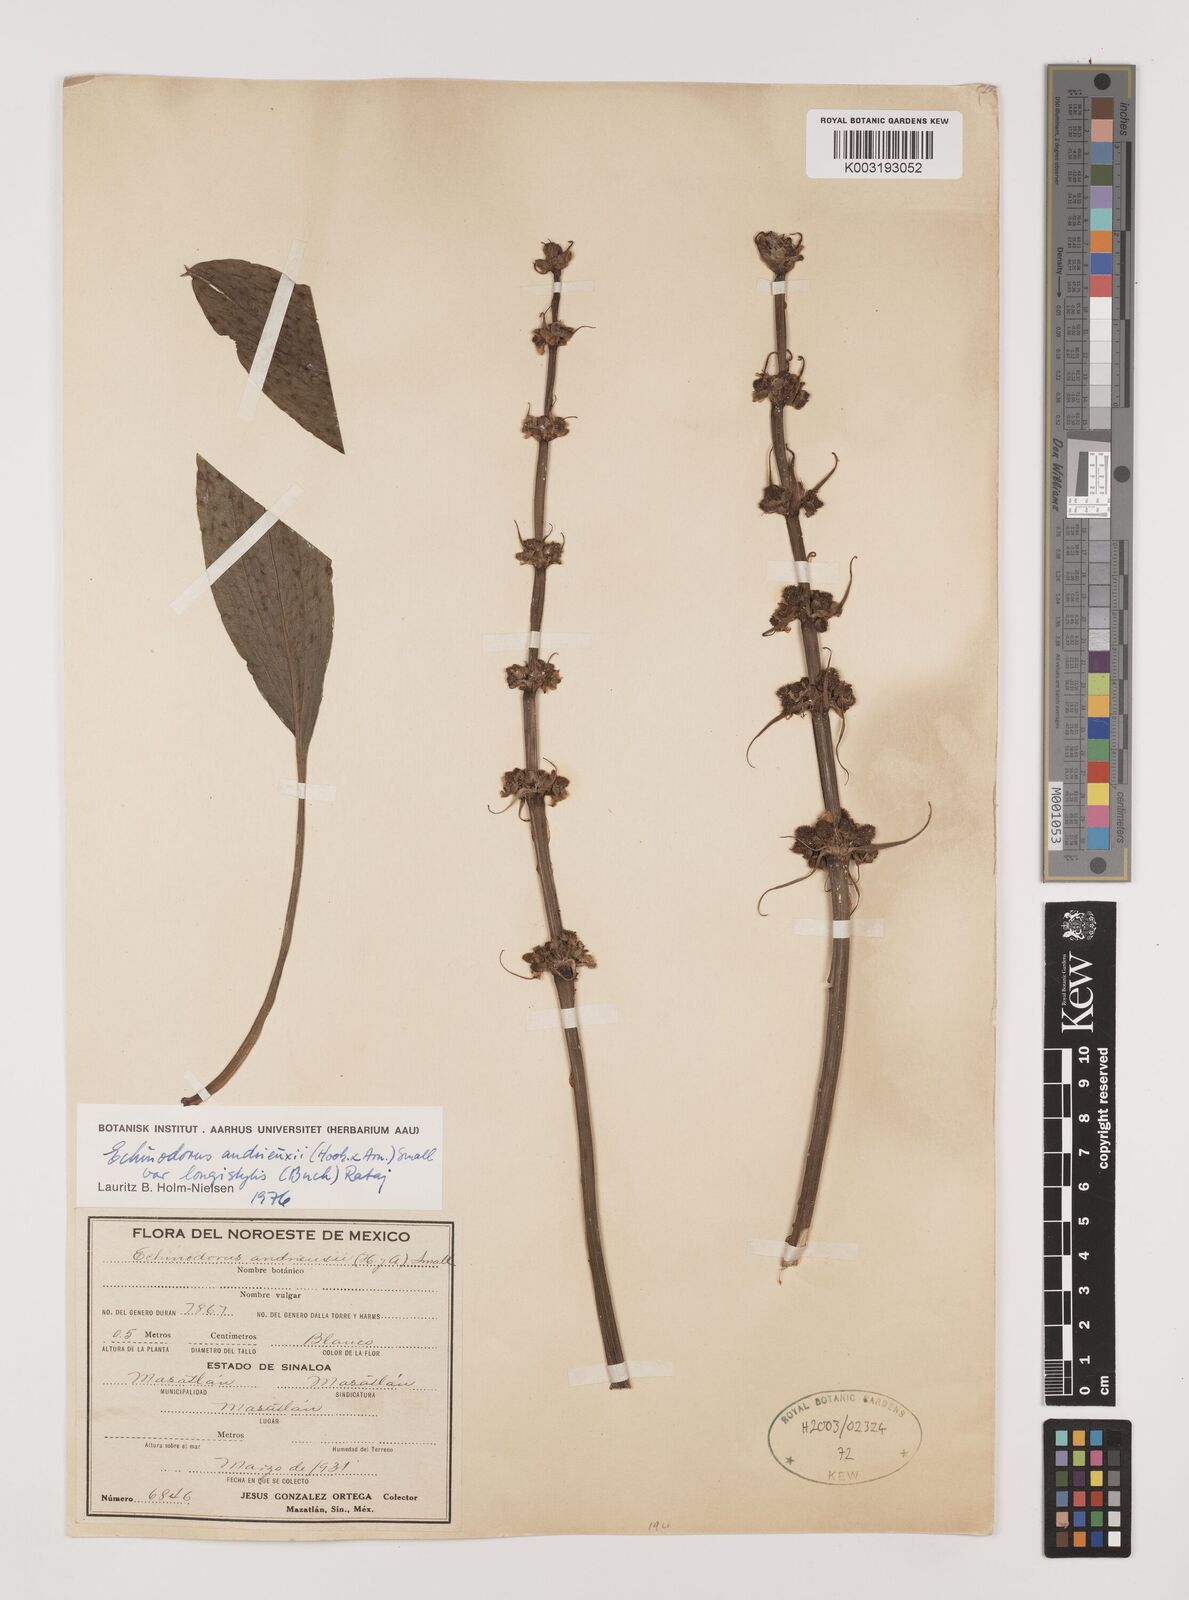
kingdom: Plantae
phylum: Tracheophyta
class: Liliopsida
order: Alismatales
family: Alismataceae
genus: Aquarius
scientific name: Aquarius subulatus
